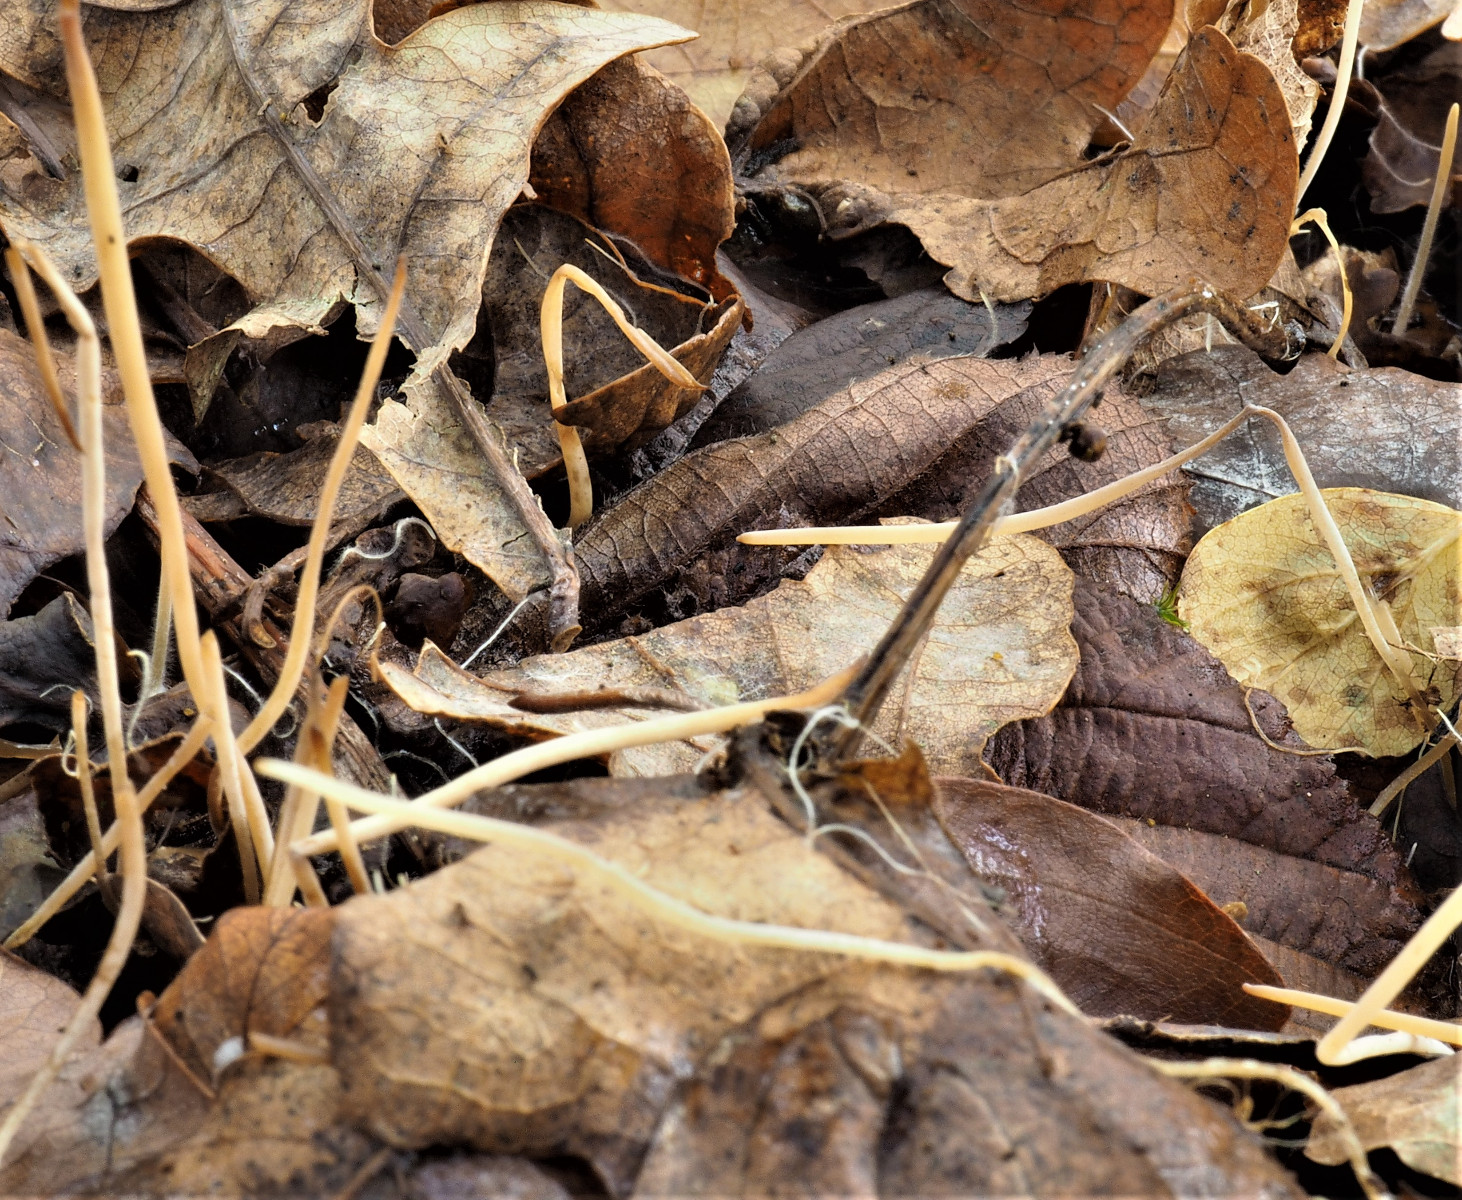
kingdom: Fungi
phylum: Basidiomycota
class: Agaricomycetes
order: Agaricales
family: Typhulaceae
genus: Typhula
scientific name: Typhula juncea
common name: trådagtig rørkølle
